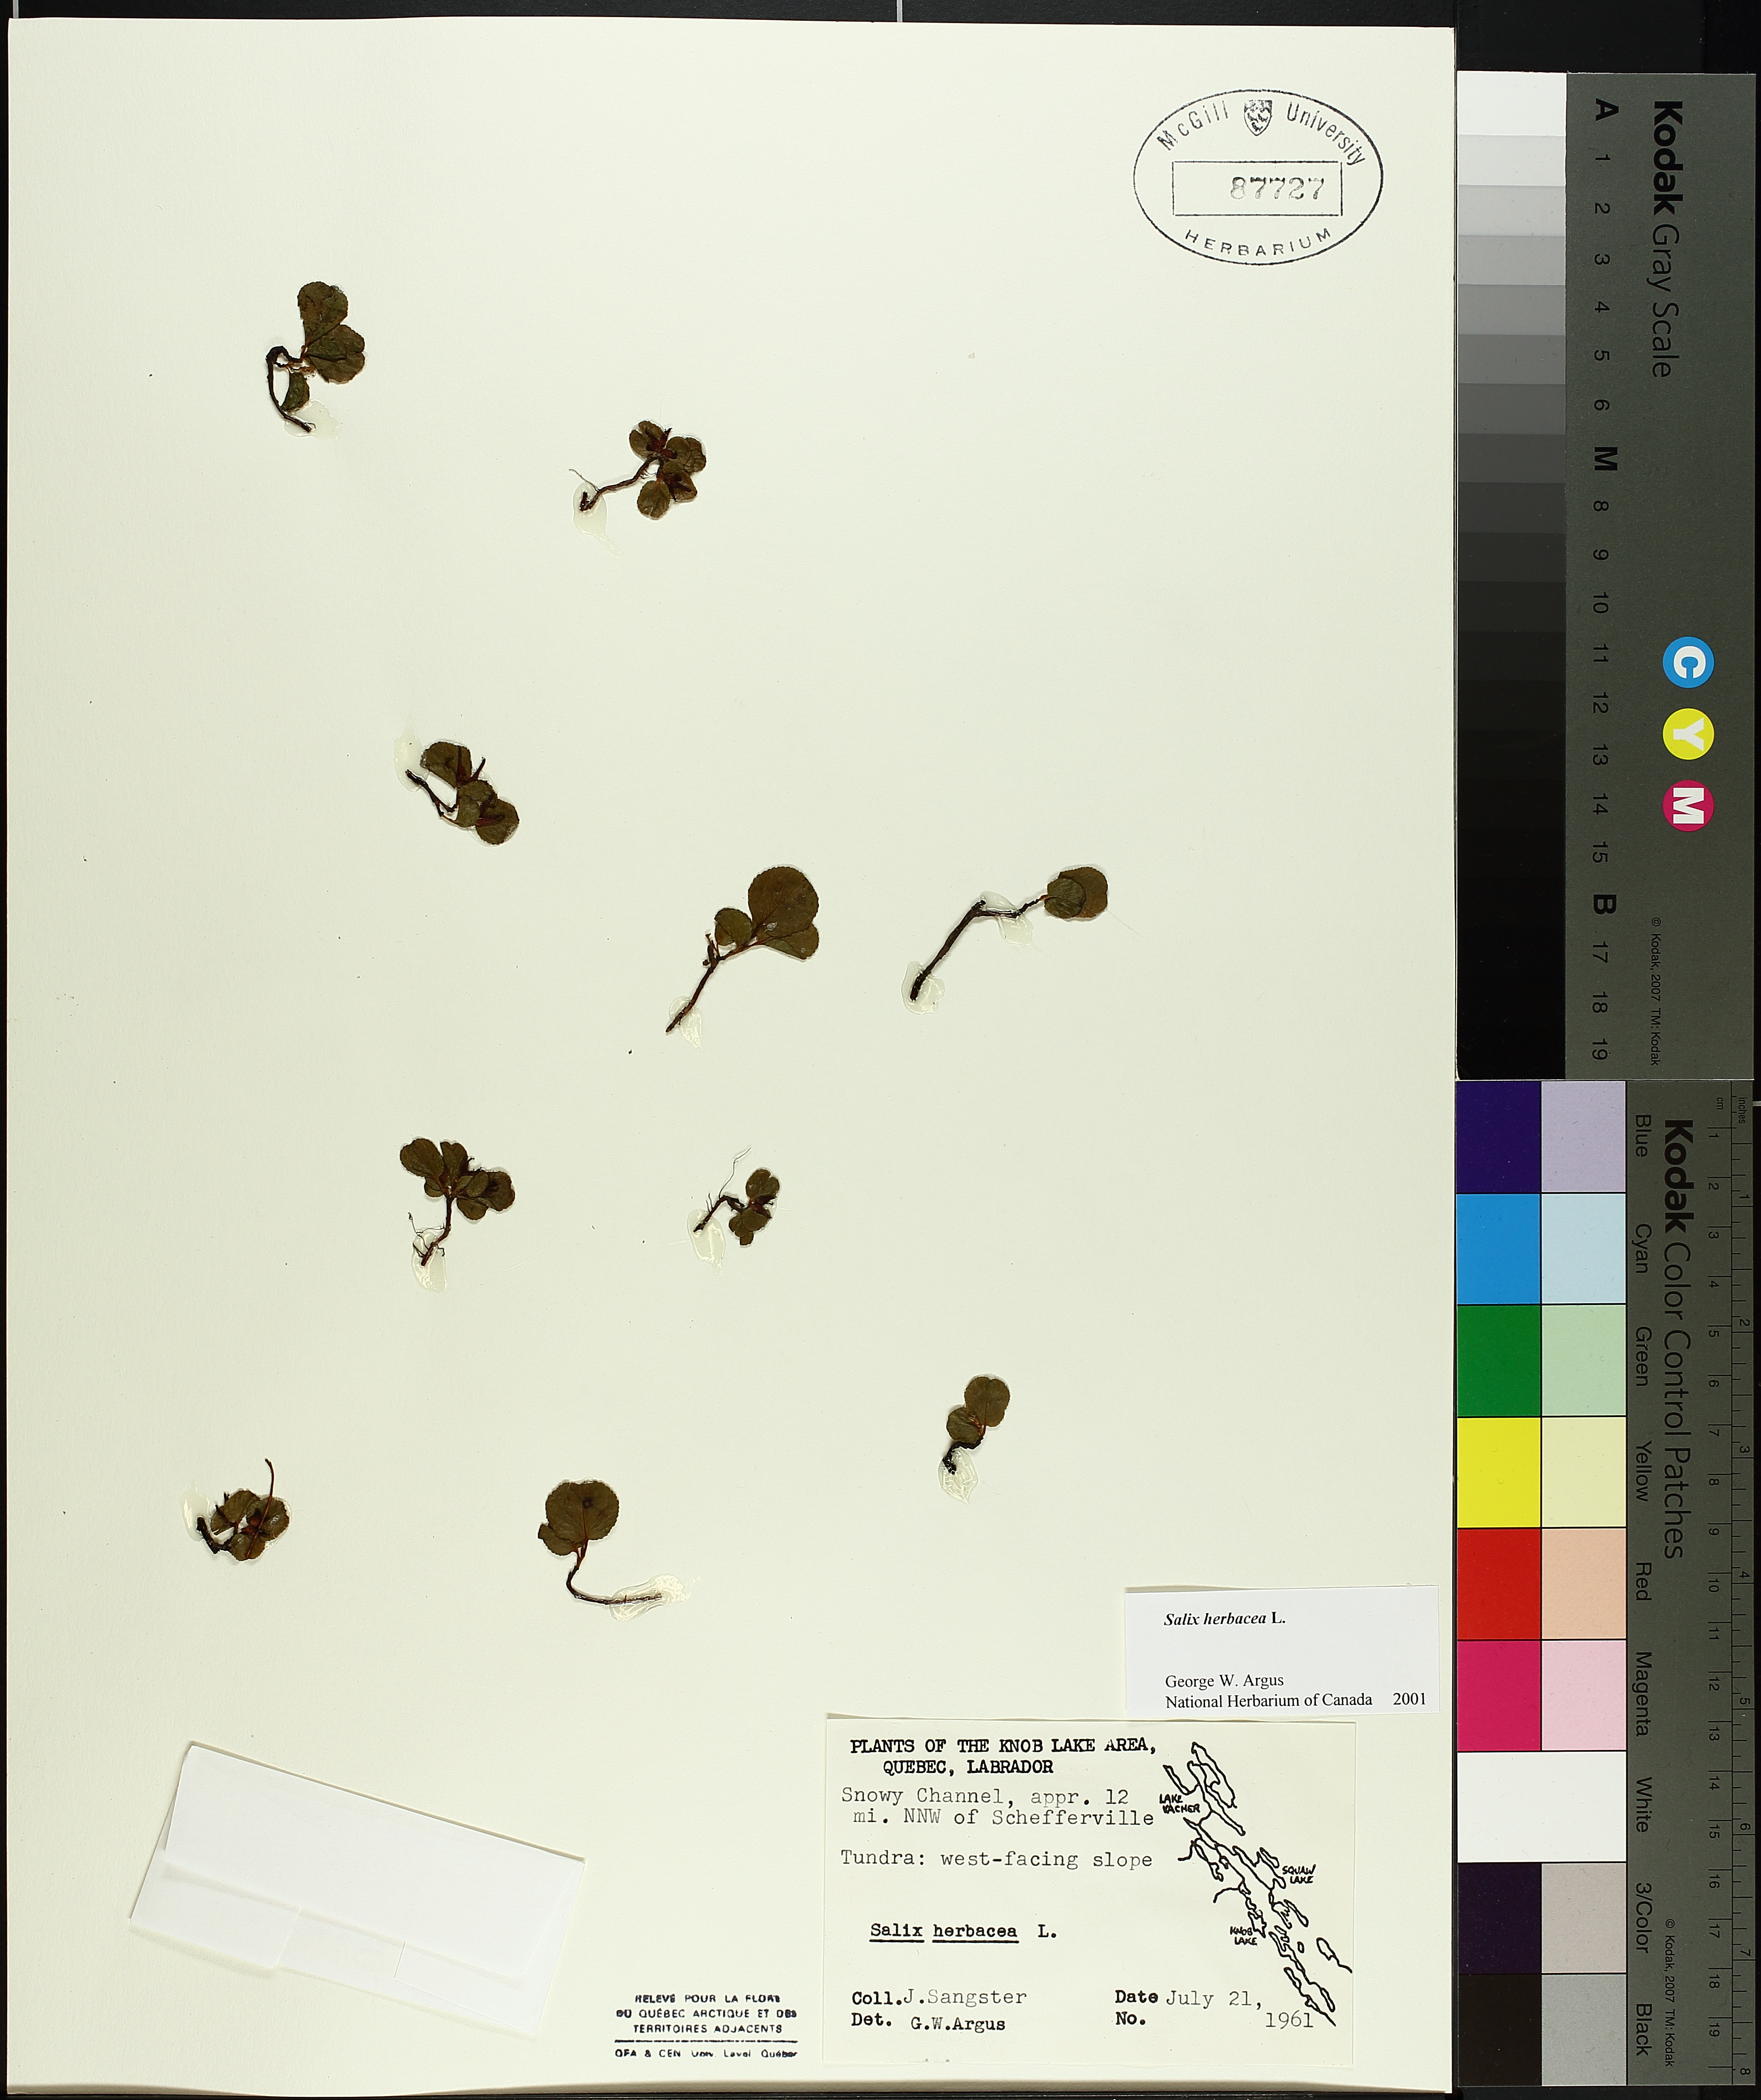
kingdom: Plantae
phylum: Tracheophyta
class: Magnoliopsida
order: Malpighiales
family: Salicaceae
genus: Salix
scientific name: Salix herbacea
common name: Dwarf willow
